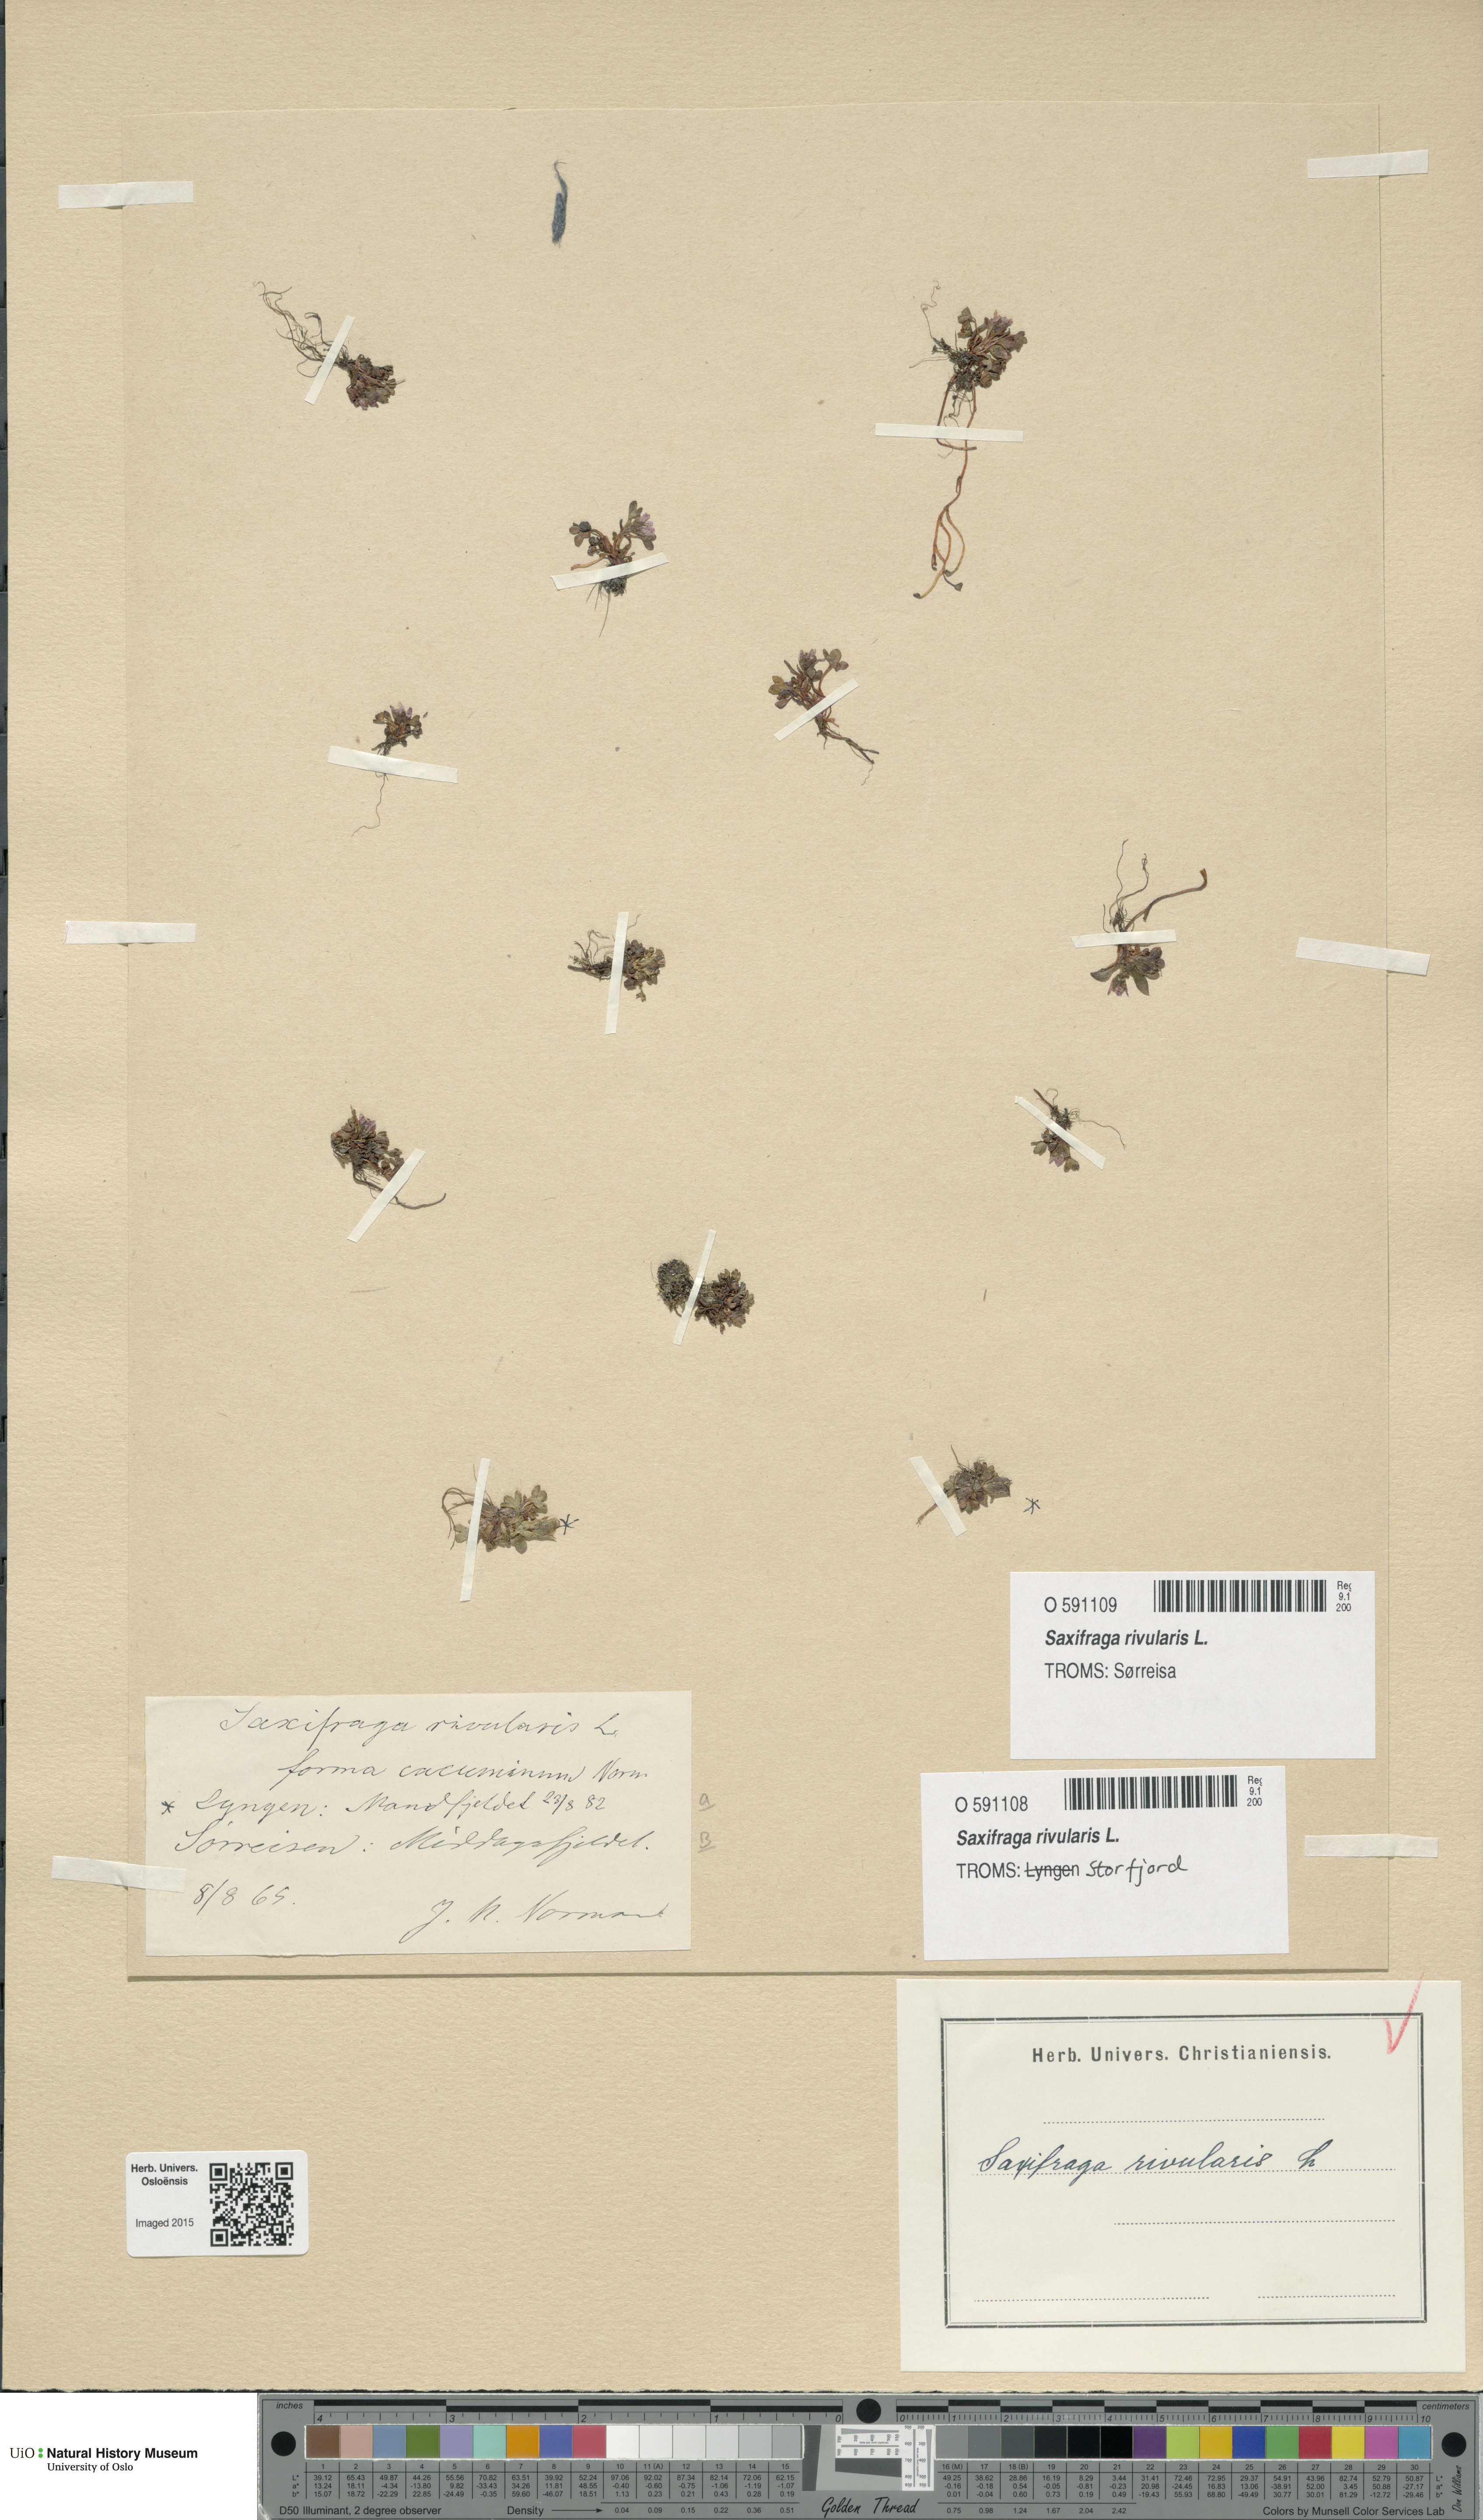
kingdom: Plantae
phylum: Tracheophyta
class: Magnoliopsida
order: Saxifragales
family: Saxifragaceae
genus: Saxifraga
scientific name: Saxifraga rivularis
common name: Highland saxifrage
